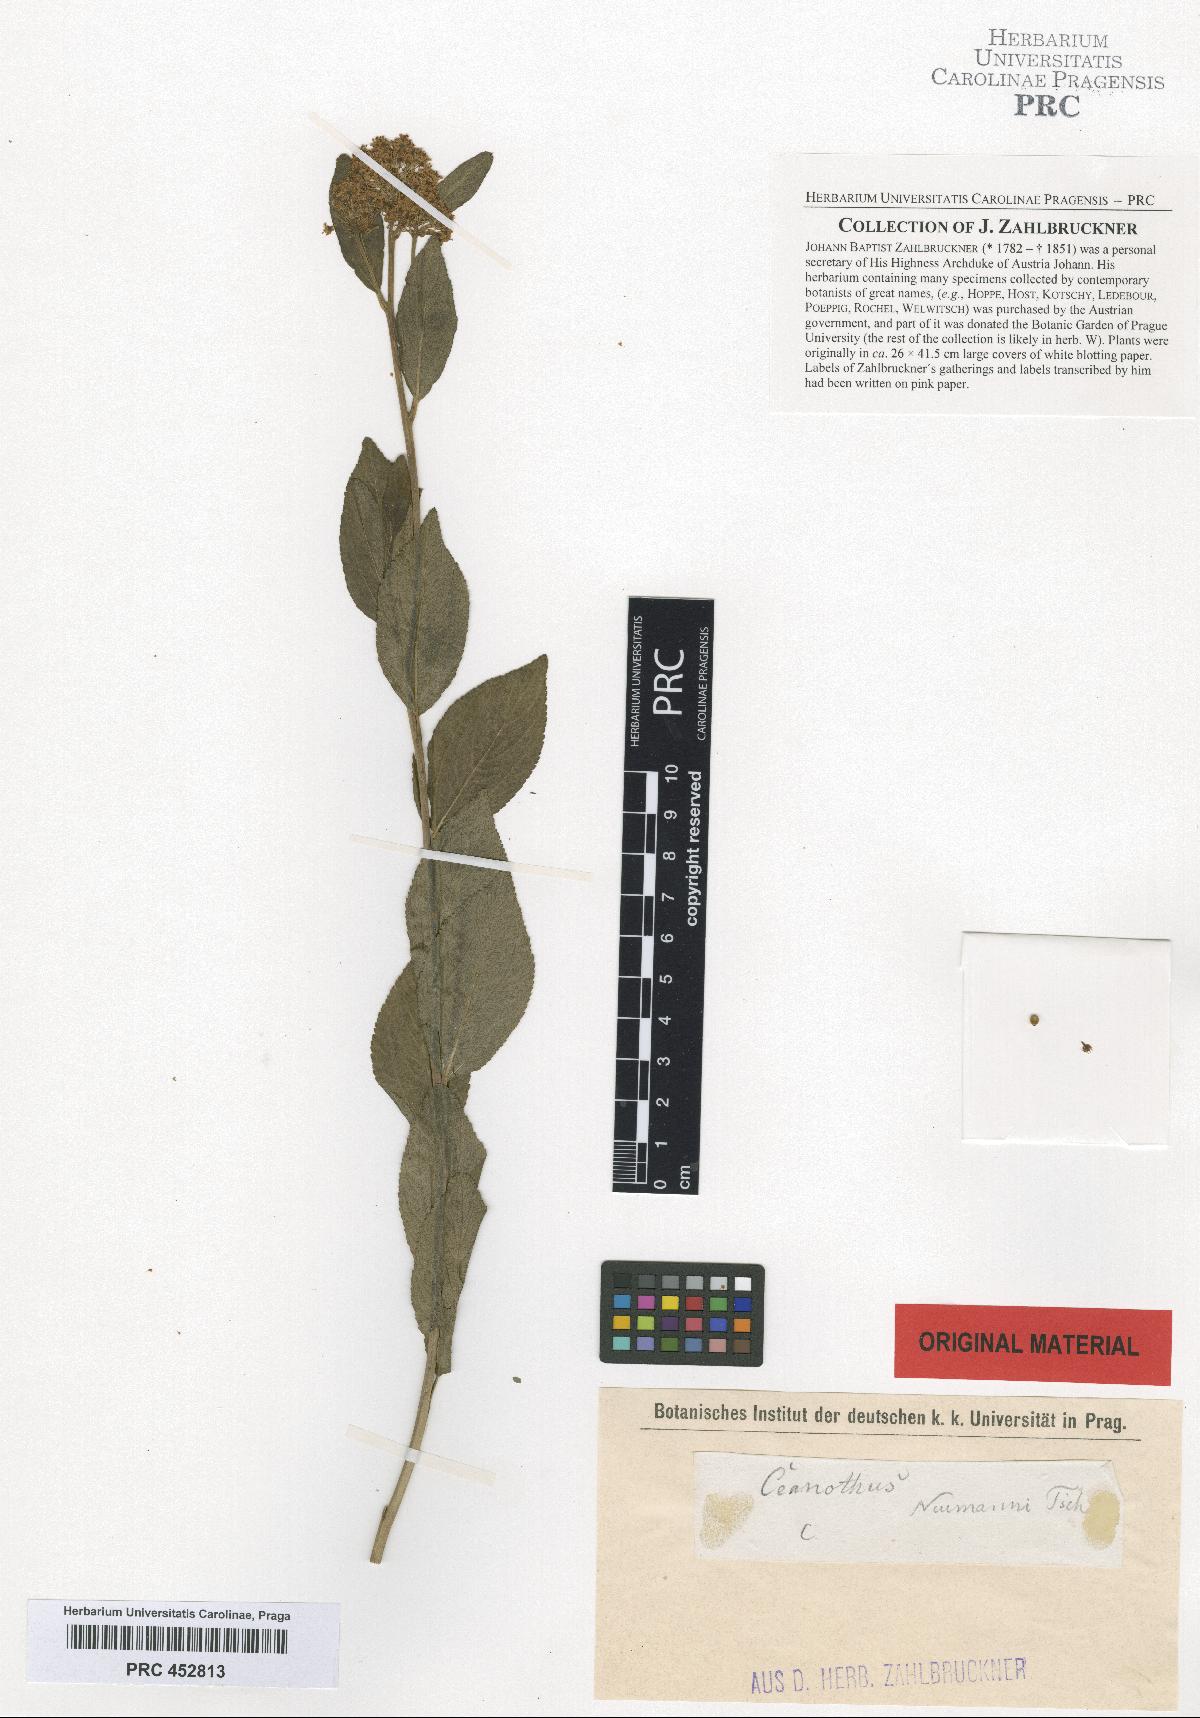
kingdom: Plantae
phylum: Tracheophyta
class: Magnoliopsida
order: Rosales
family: Rhamnaceae
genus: Ceanothus
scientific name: Ceanothus neumannii
